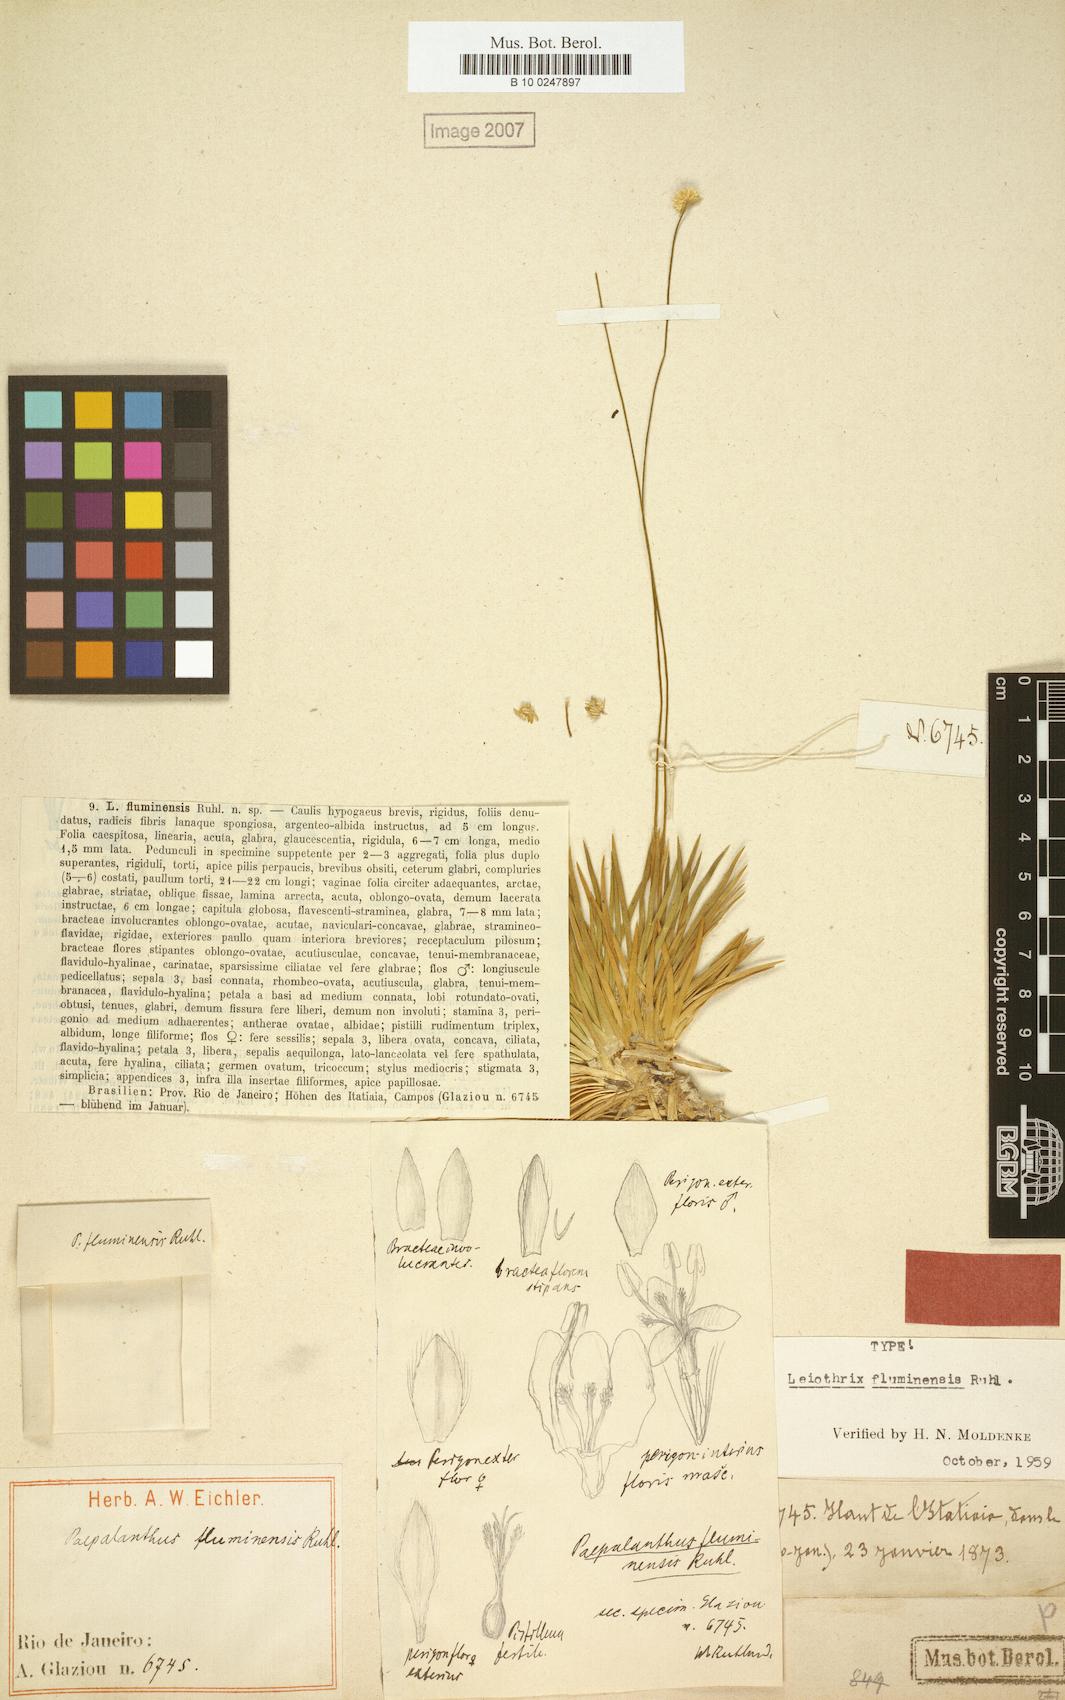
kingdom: Plantae
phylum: Tracheophyta
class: Liliopsida
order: Poales
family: Eriocaulaceae
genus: Leiothrix
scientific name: Leiothrix argyroderma
